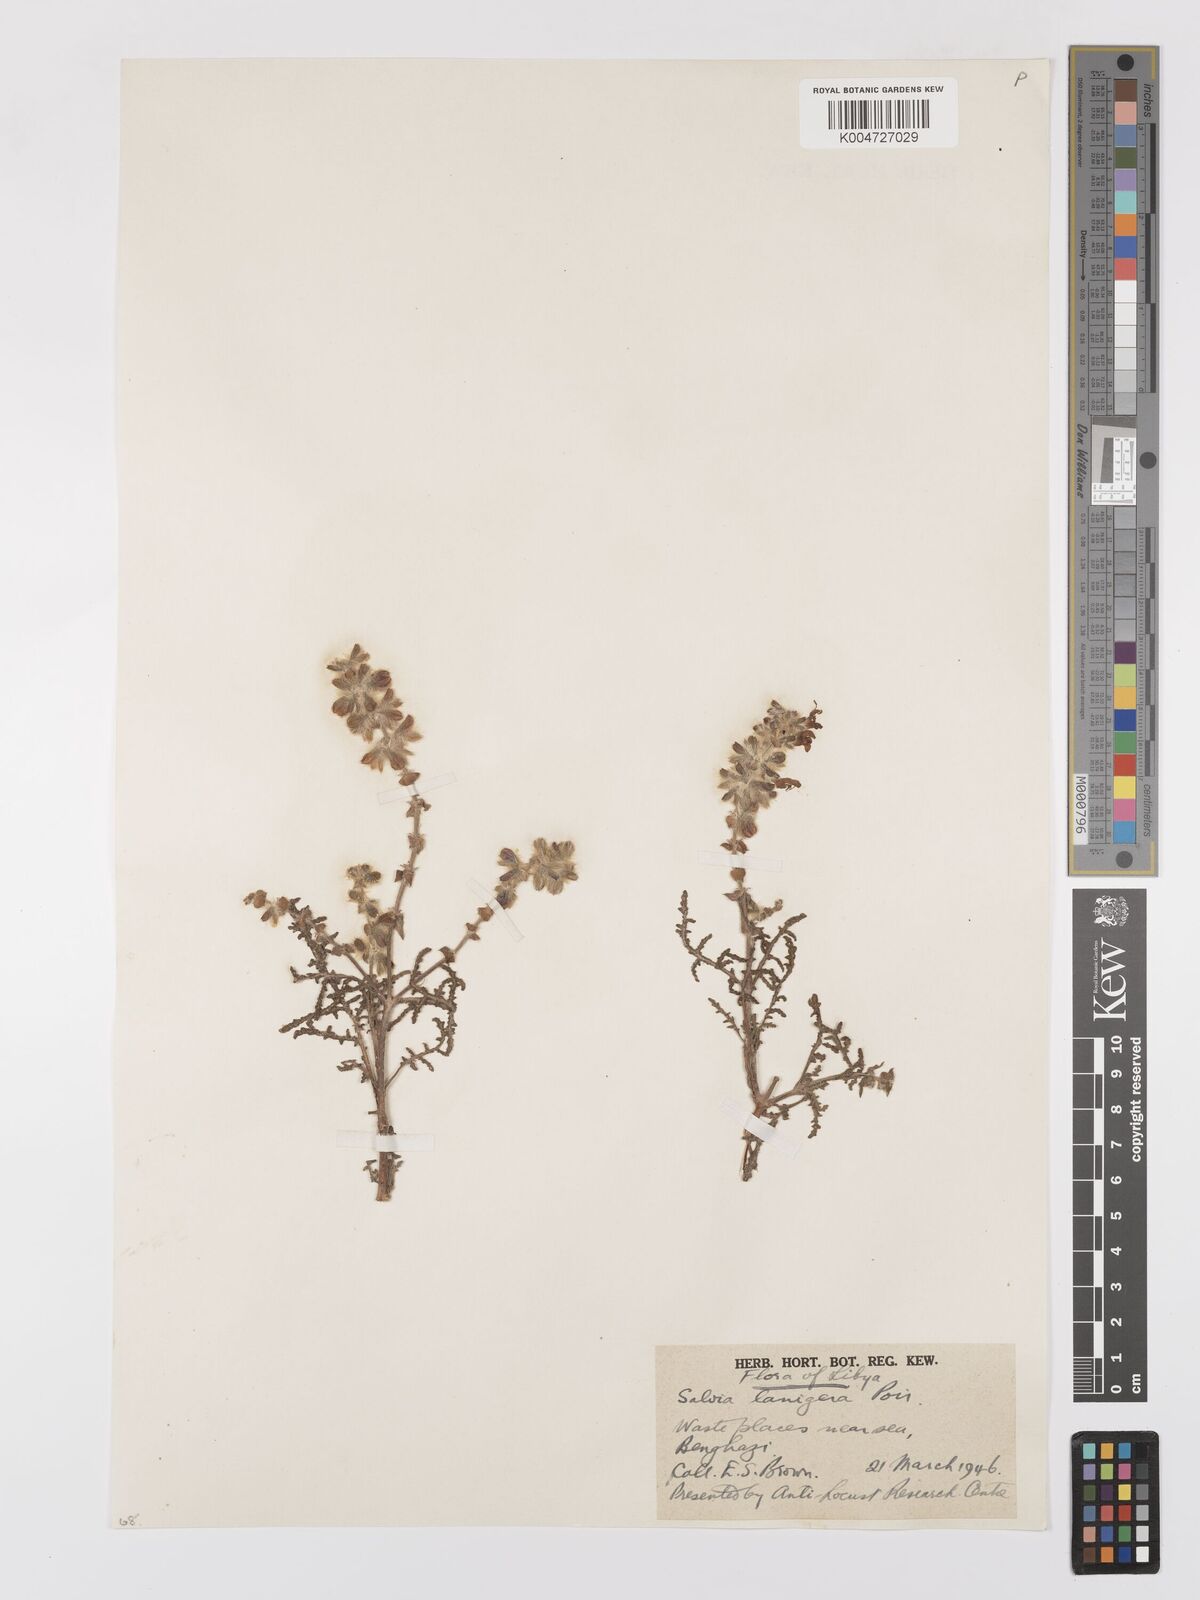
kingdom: Plantae
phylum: Tracheophyta
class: Magnoliopsida
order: Lamiales
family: Lamiaceae
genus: Salvia
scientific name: Salvia lanigera
